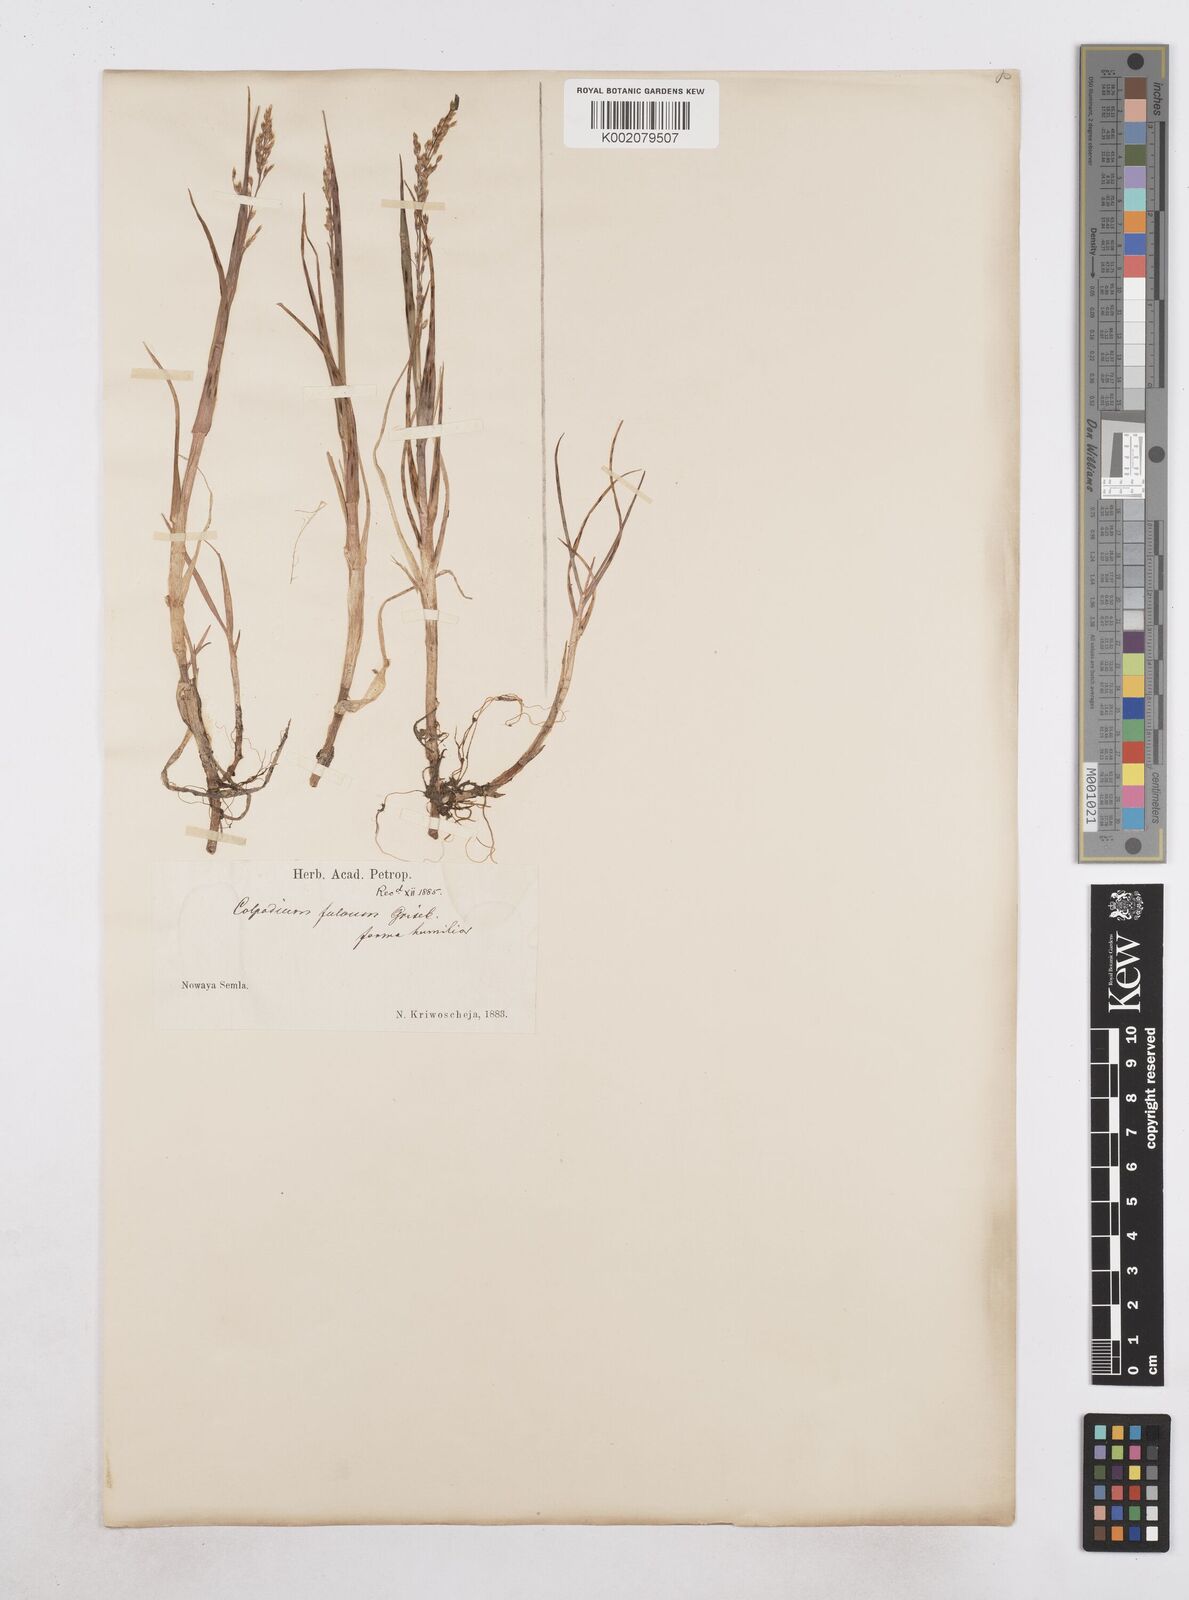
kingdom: Plantae
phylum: Tracheophyta
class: Liliopsida
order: Poales
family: Poaceae
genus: Dupontia
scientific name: Dupontia fulva
